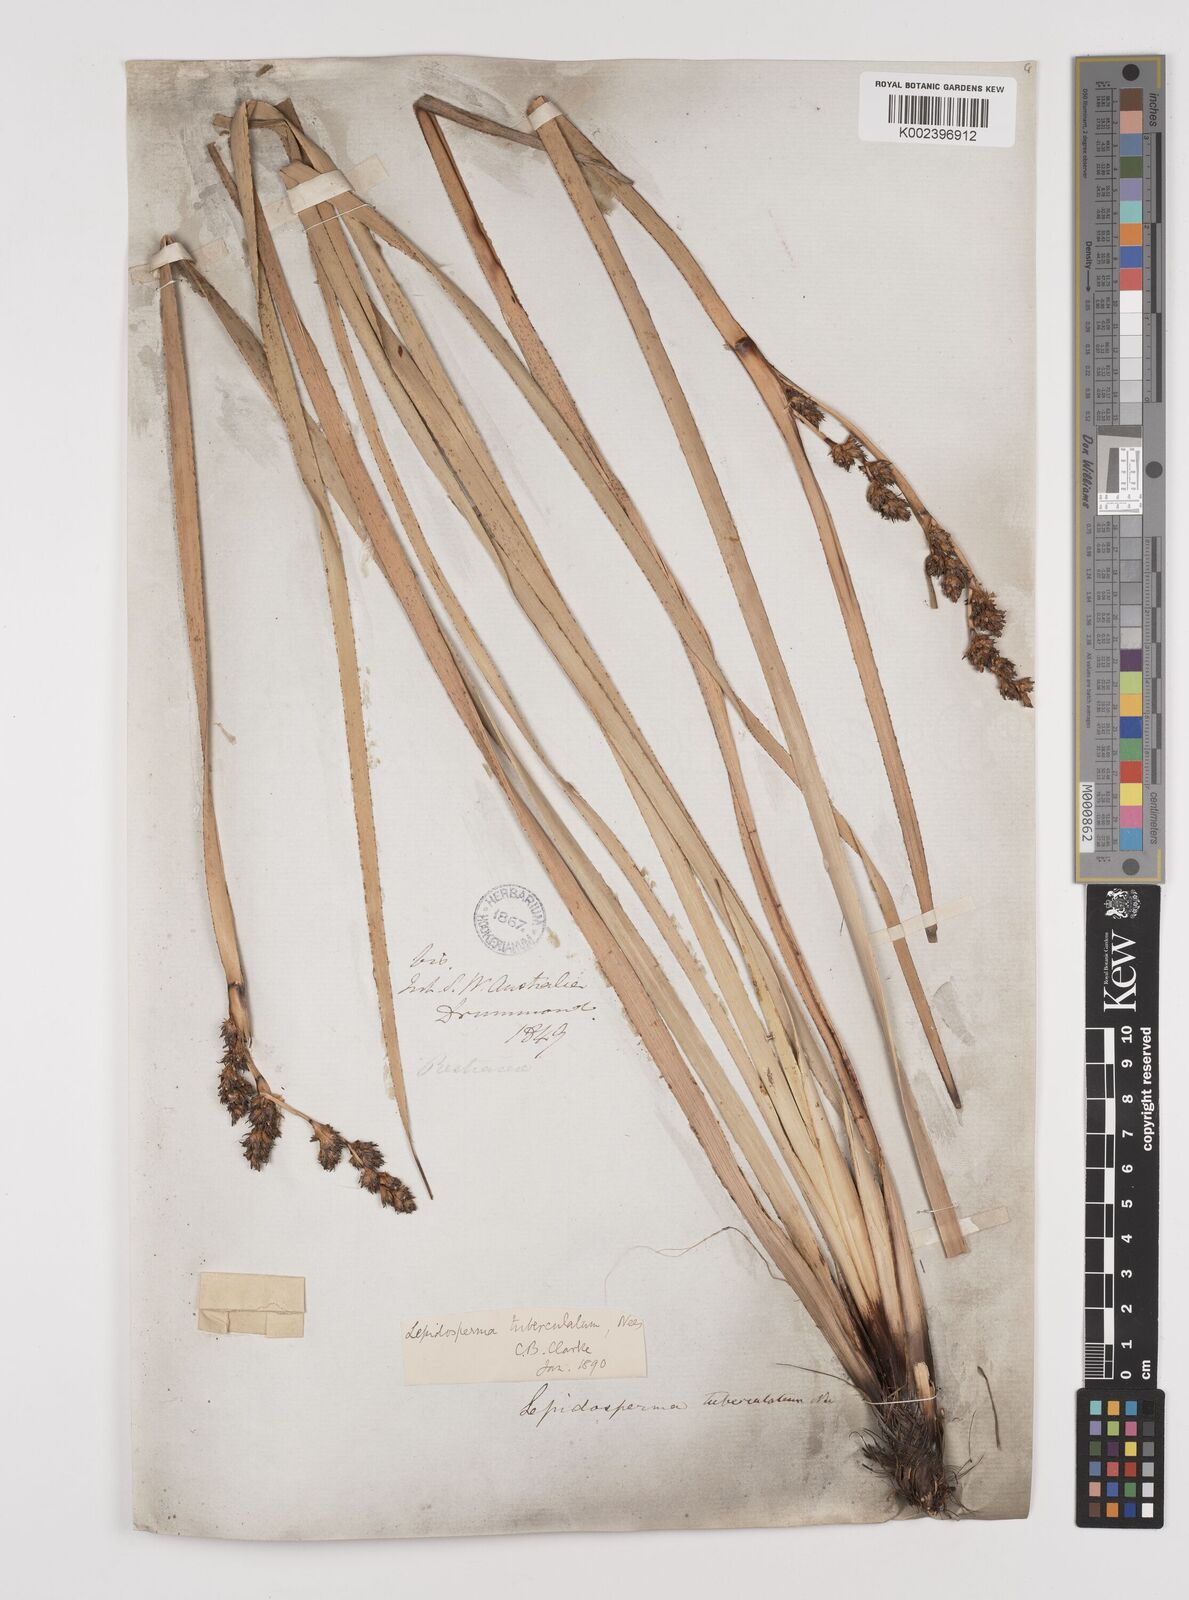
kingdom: Plantae
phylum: Tracheophyta
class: Liliopsida
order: Poales
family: Cyperaceae
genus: Lepidosperma
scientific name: Lepidosperma tuberculatum
